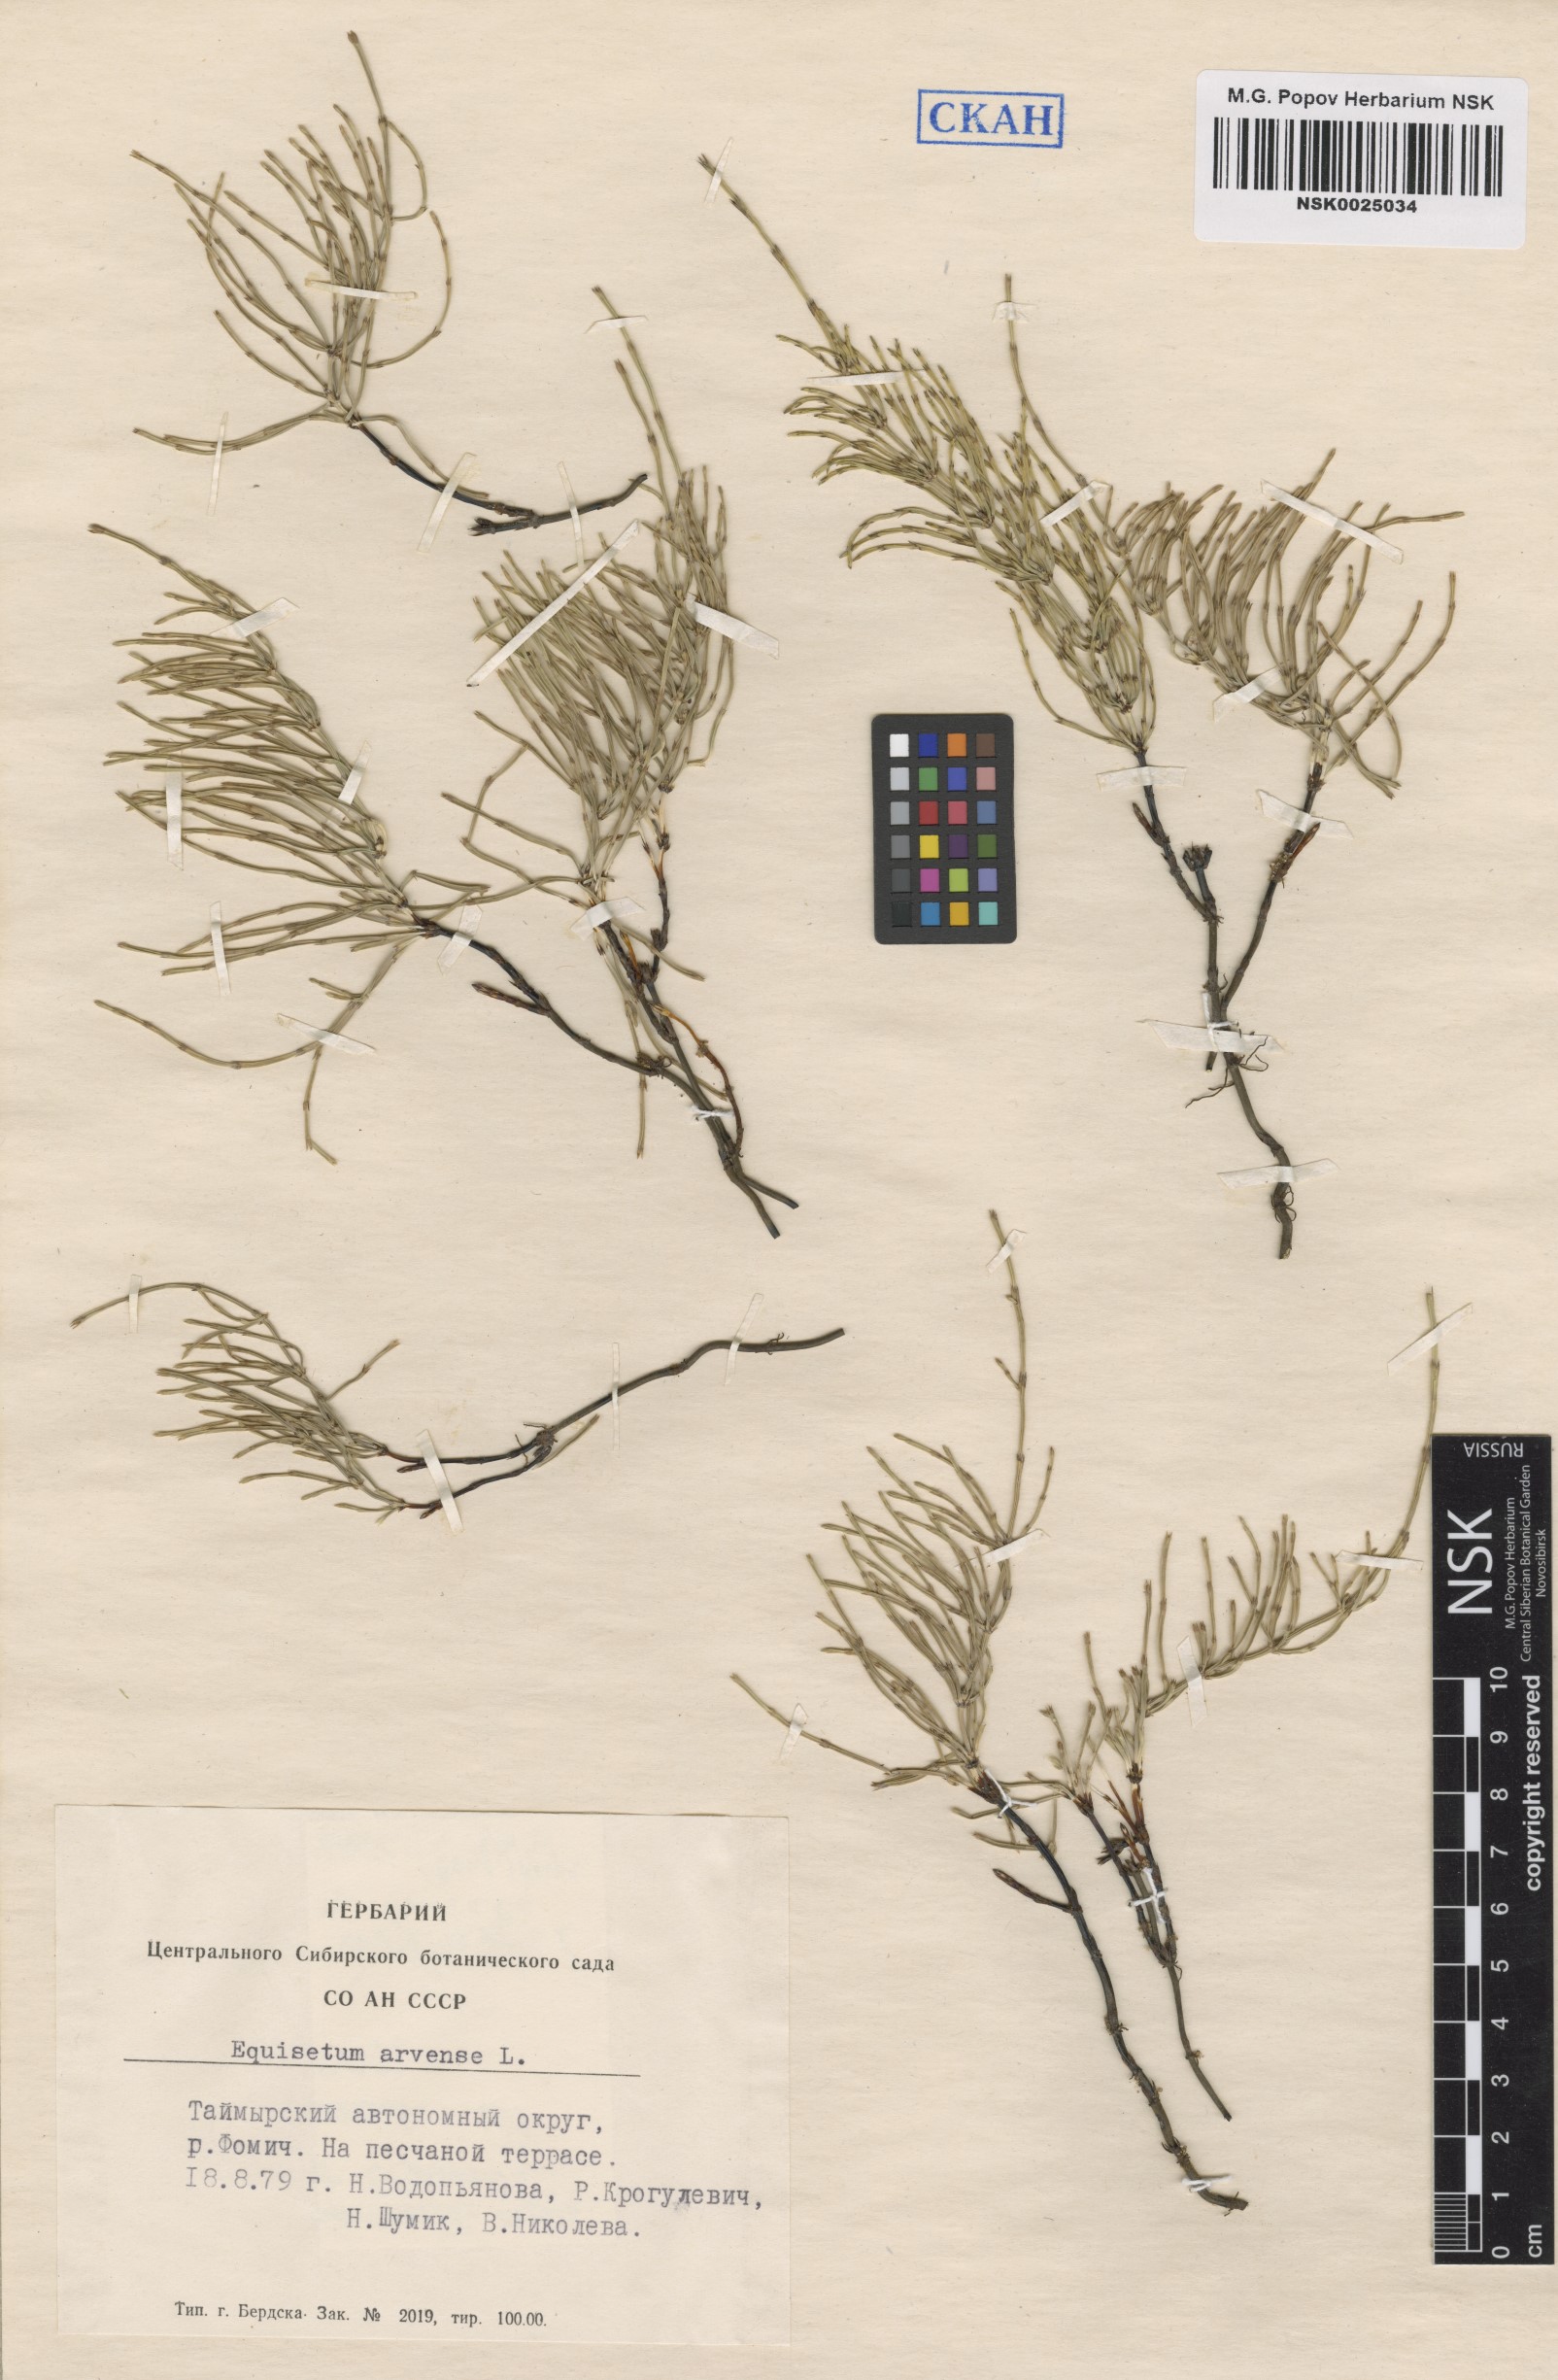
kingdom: Plantae
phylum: Tracheophyta
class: Polypodiopsida
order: Equisetales
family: Equisetaceae
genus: Equisetum
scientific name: Equisetum arvense
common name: Field horsetail
